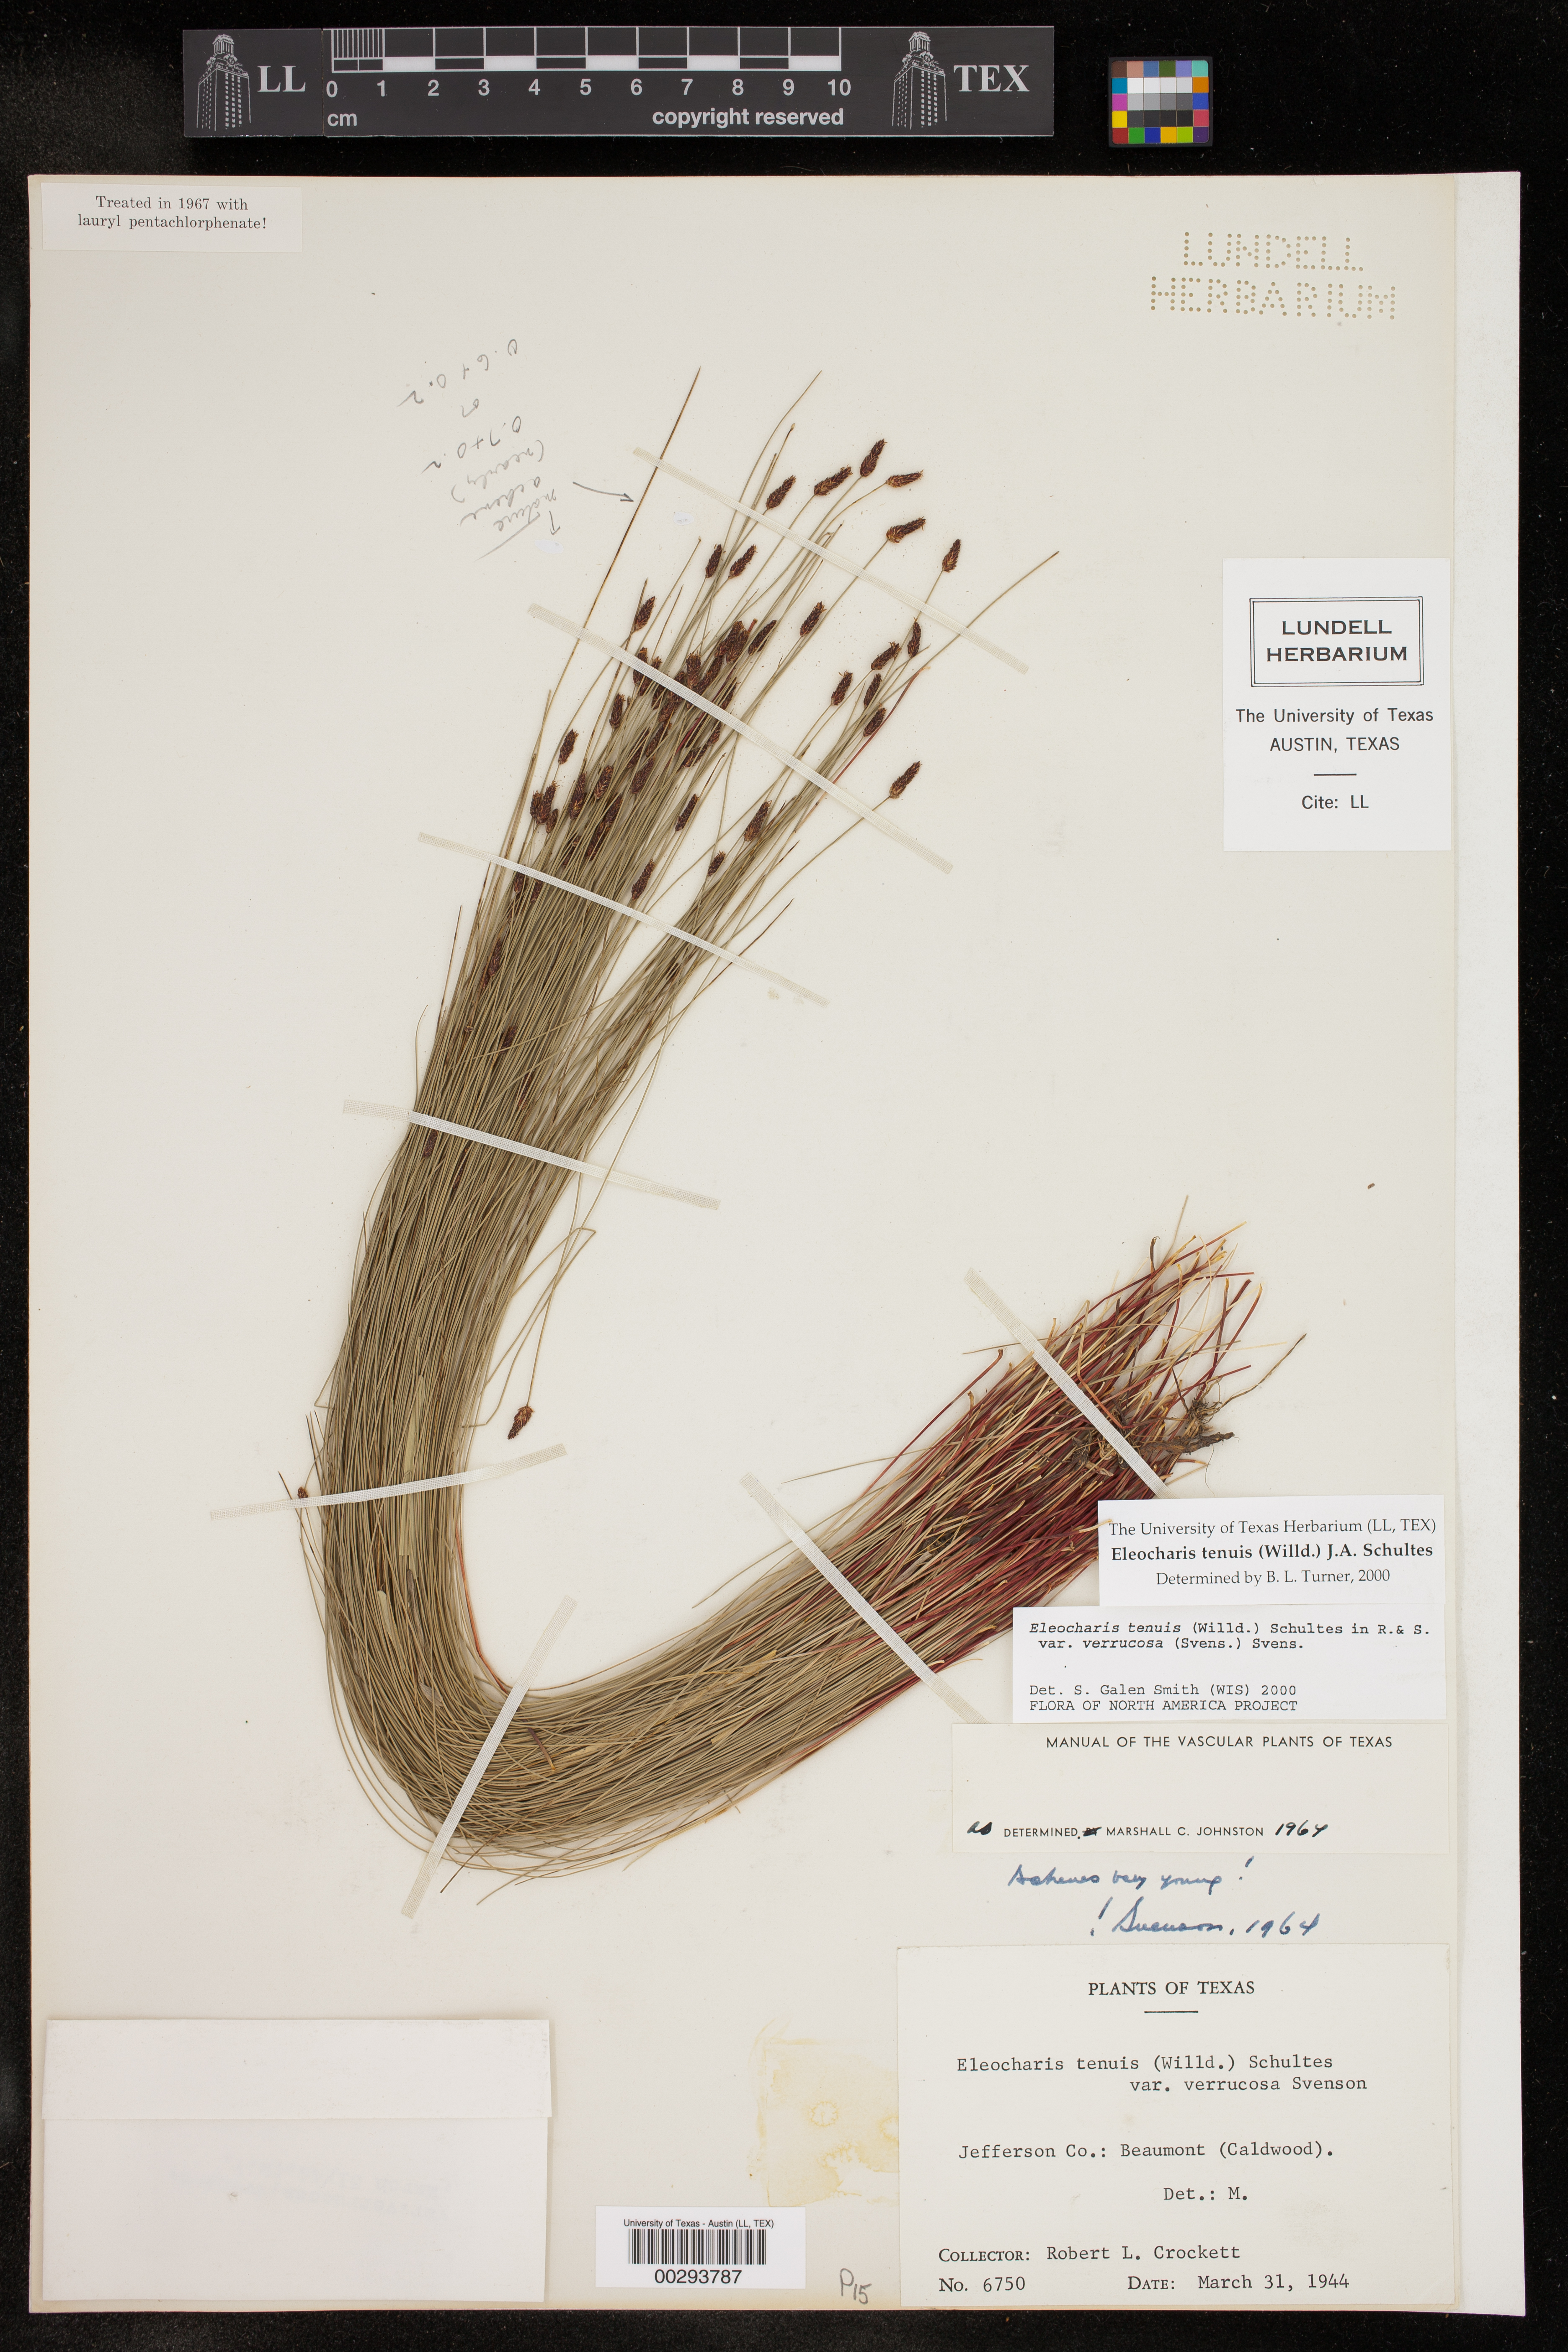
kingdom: Plantae
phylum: Tracheophyta
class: Liliopsida
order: Poales
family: Cyperaceae
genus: Eleocharis
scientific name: Eleocharis tenuis
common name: Dog's hair
